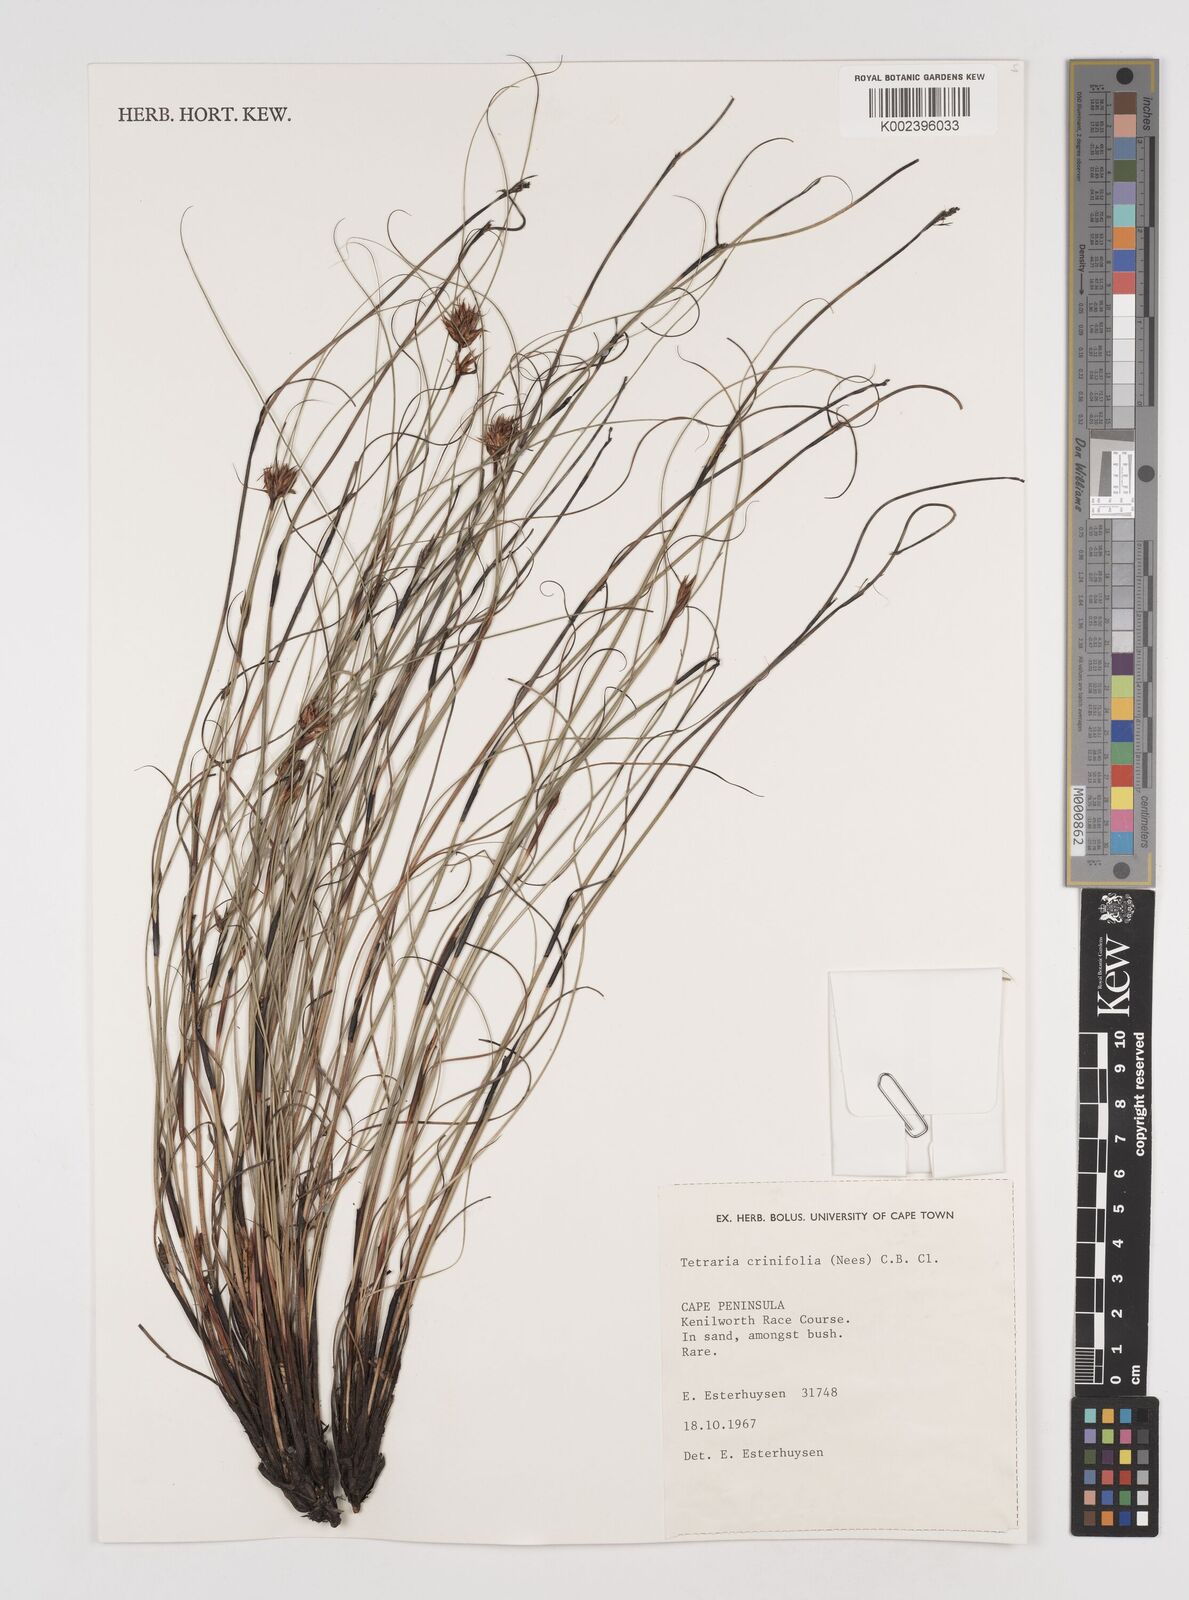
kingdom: Plantae
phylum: Tracheophyta
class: Liliopsida
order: Poales
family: Cyperaceae
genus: Tetraria
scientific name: Tetraria crinifolia
